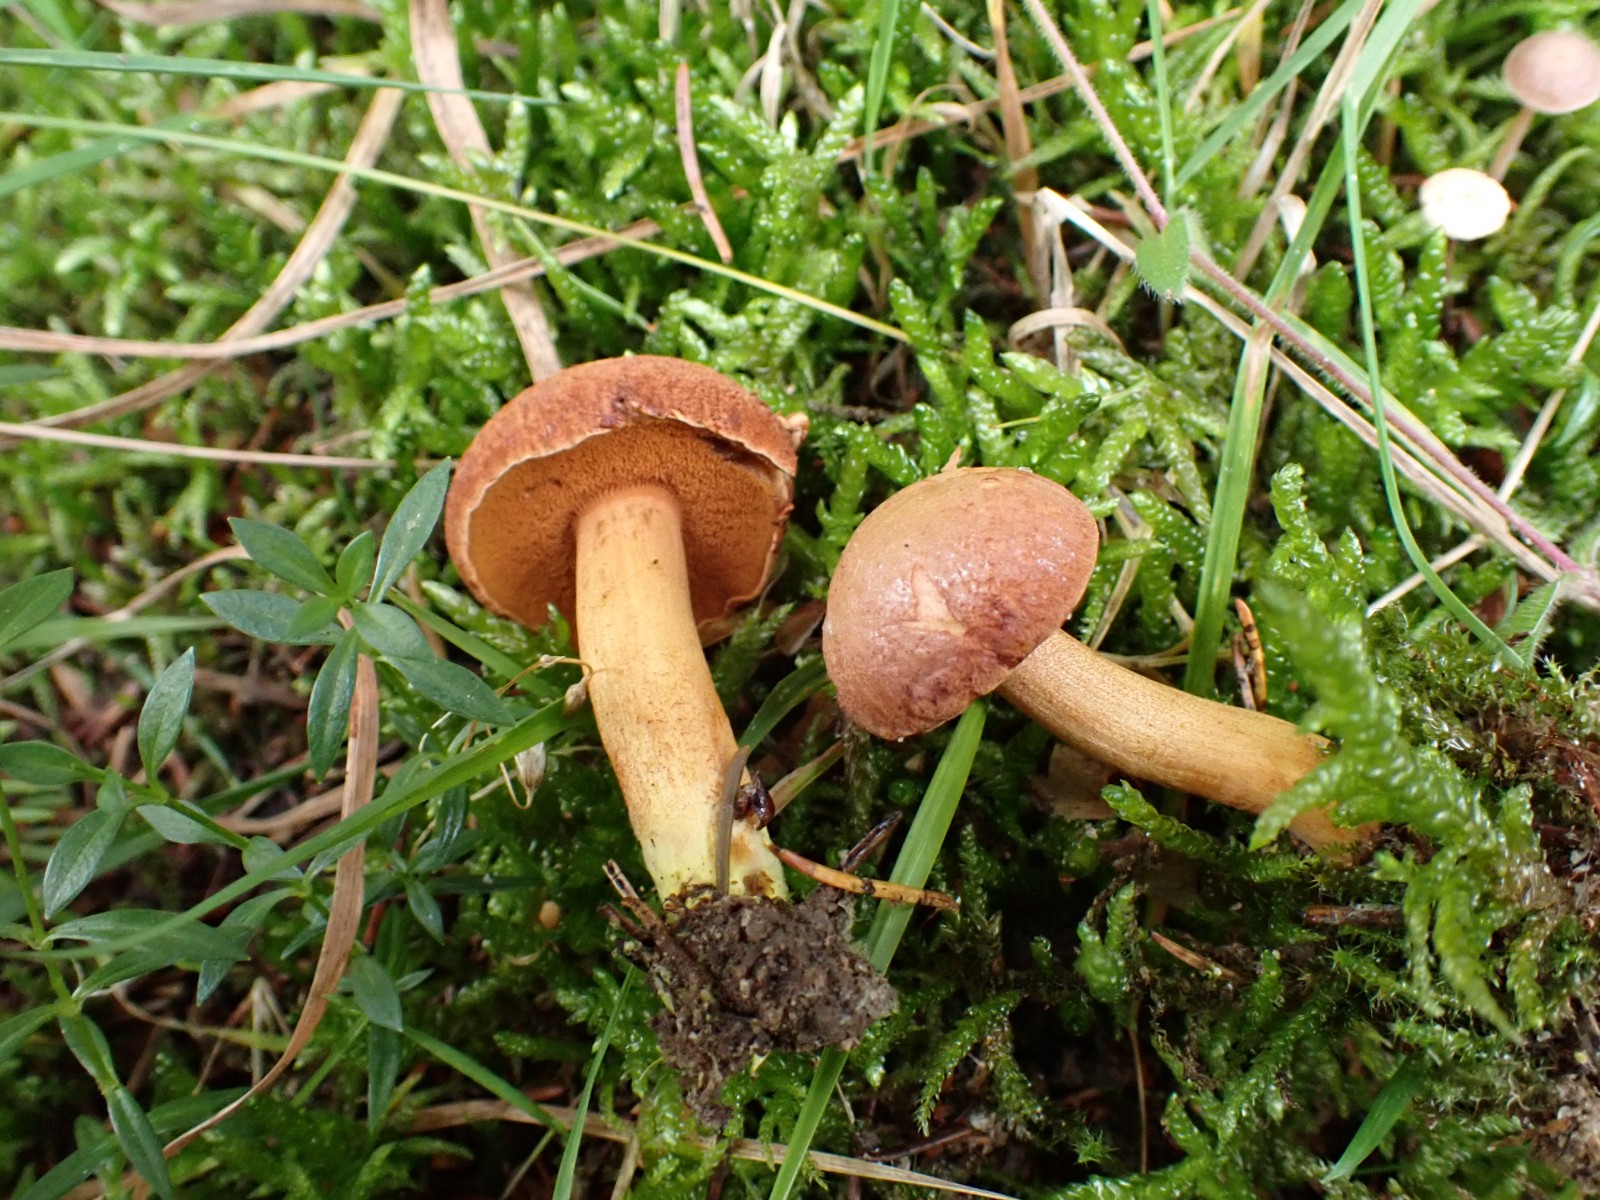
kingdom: Fungi
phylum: Basidiomycota
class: Agaricomycetes
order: Boletales
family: Boletaceae
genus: Chalciporus
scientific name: Chalciporus
